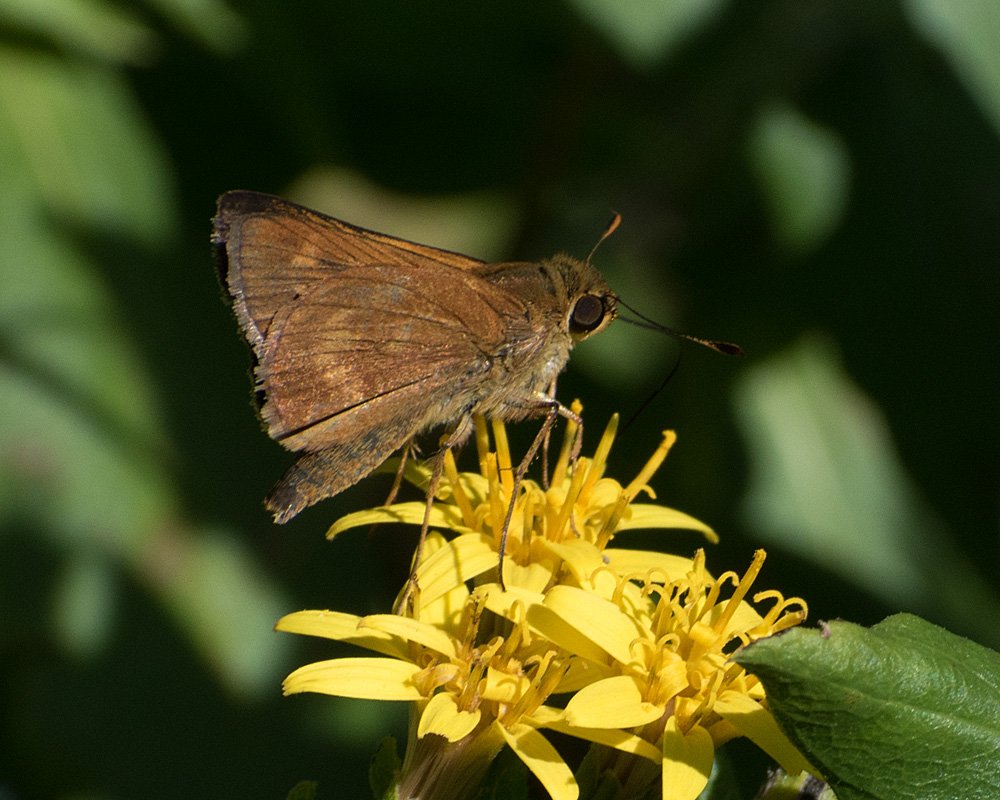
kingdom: Animalia
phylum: Arthropoda
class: Insecta
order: Lepidoptera
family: Hesperiidae
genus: Wallengrenia
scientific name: Wallengrenia otho
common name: Southern Broken-Dash
